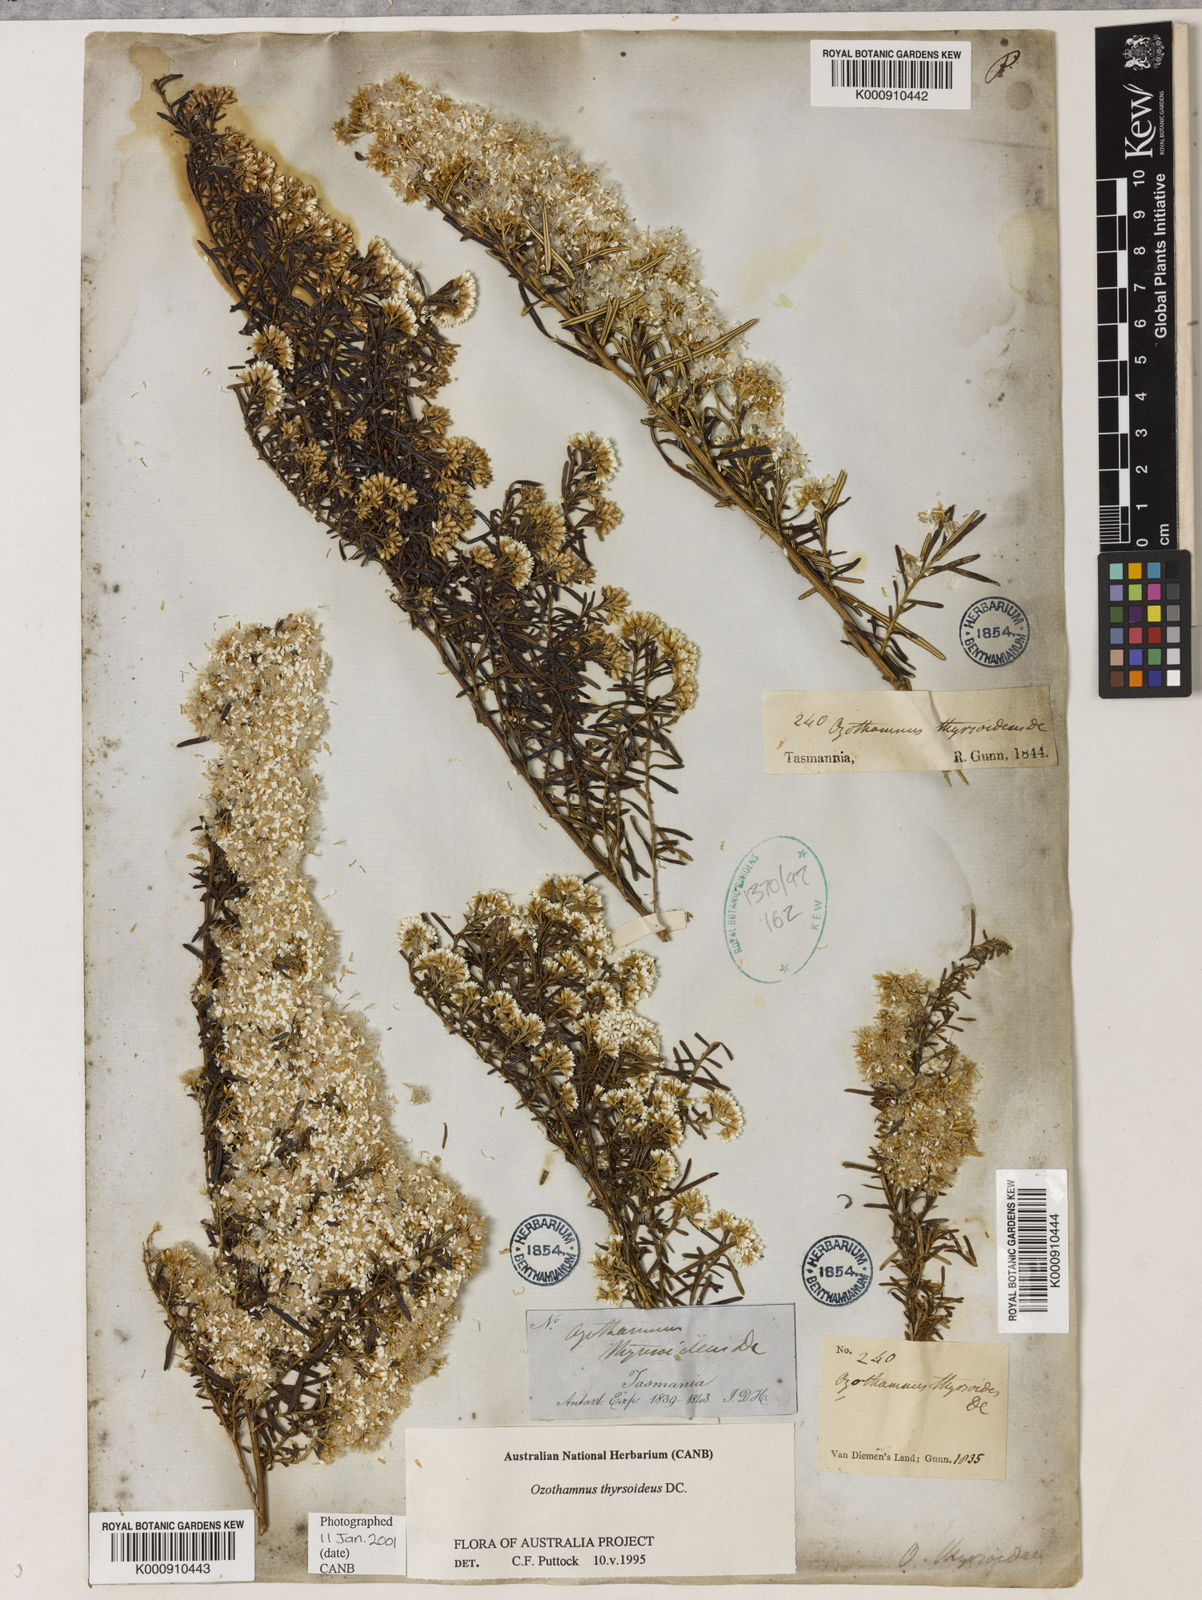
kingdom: Plantae
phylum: Tracheophyta
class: Magnoliopsida
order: Asterales
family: Asteraceae
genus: Ozothamnus
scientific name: Ozothamnus thyrsoideus
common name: Snow-in-summer
